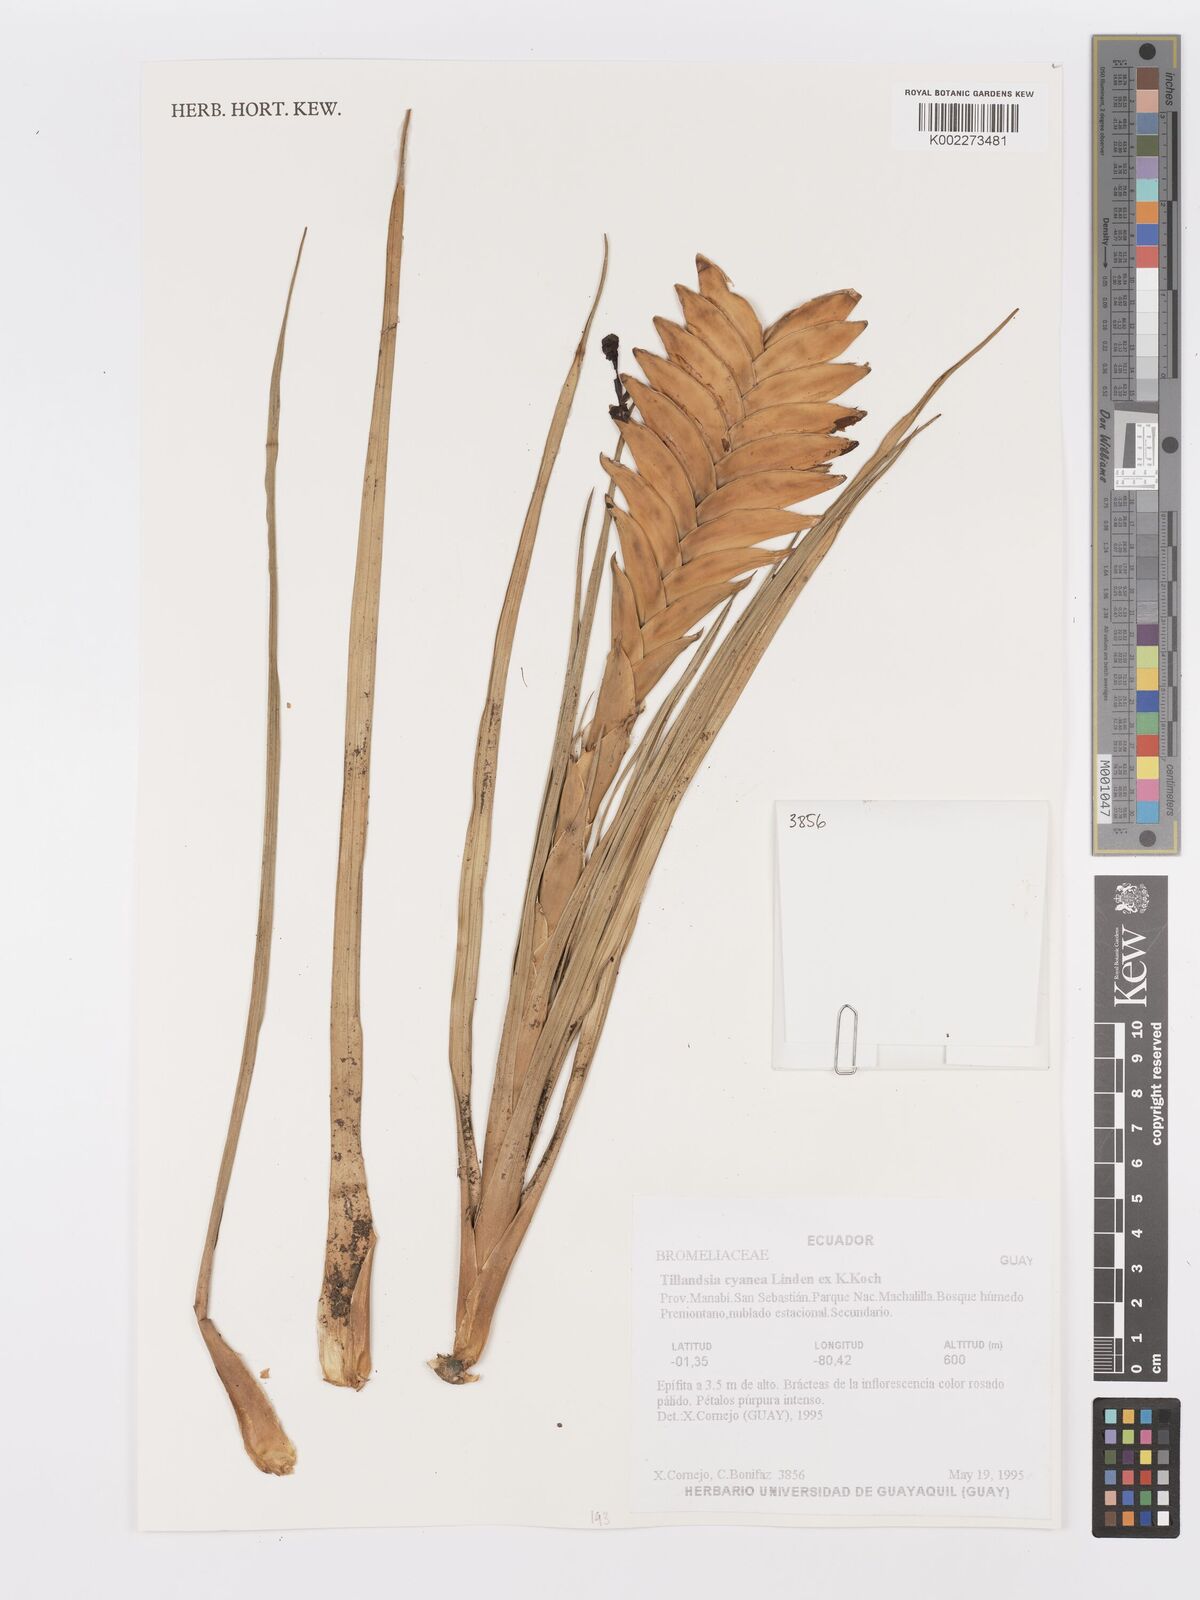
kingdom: Plantae
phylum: Tracheophyta
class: Liliopsida
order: Poales
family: Bromeliaceae
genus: Tillandsia
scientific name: Tillandsia guatemalensis
